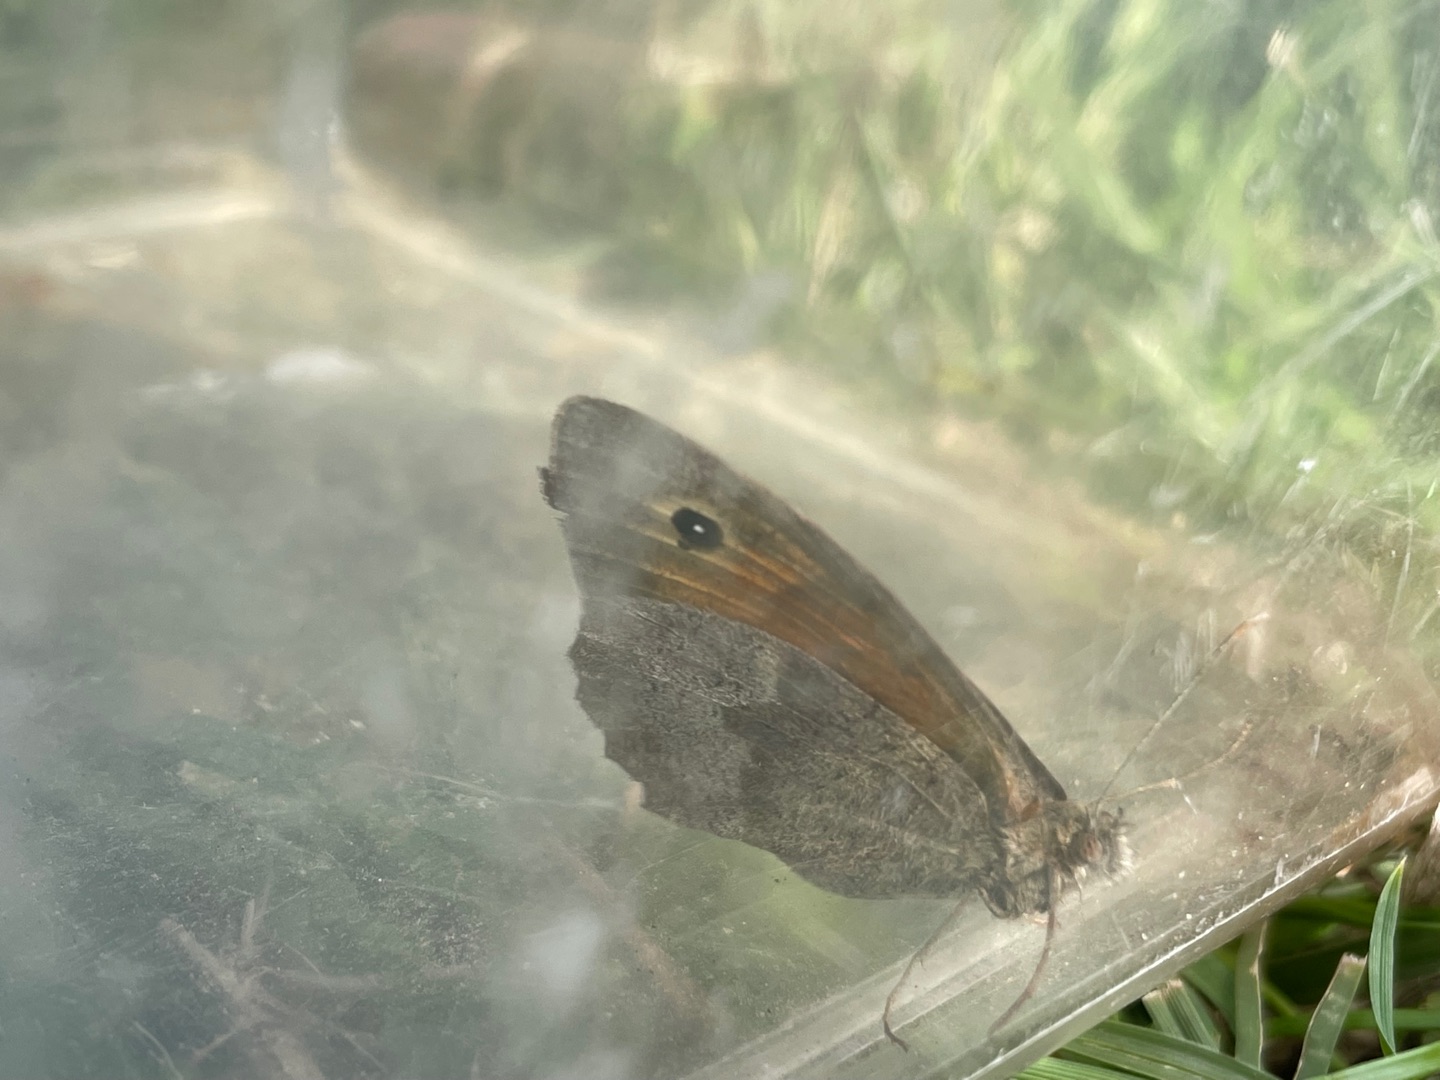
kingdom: Animalia
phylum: Arthropoda
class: Insecta
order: Lepidoptera
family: Nymphalidae
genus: Maniola
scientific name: Maniola jurtina
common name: Græsrandøje
